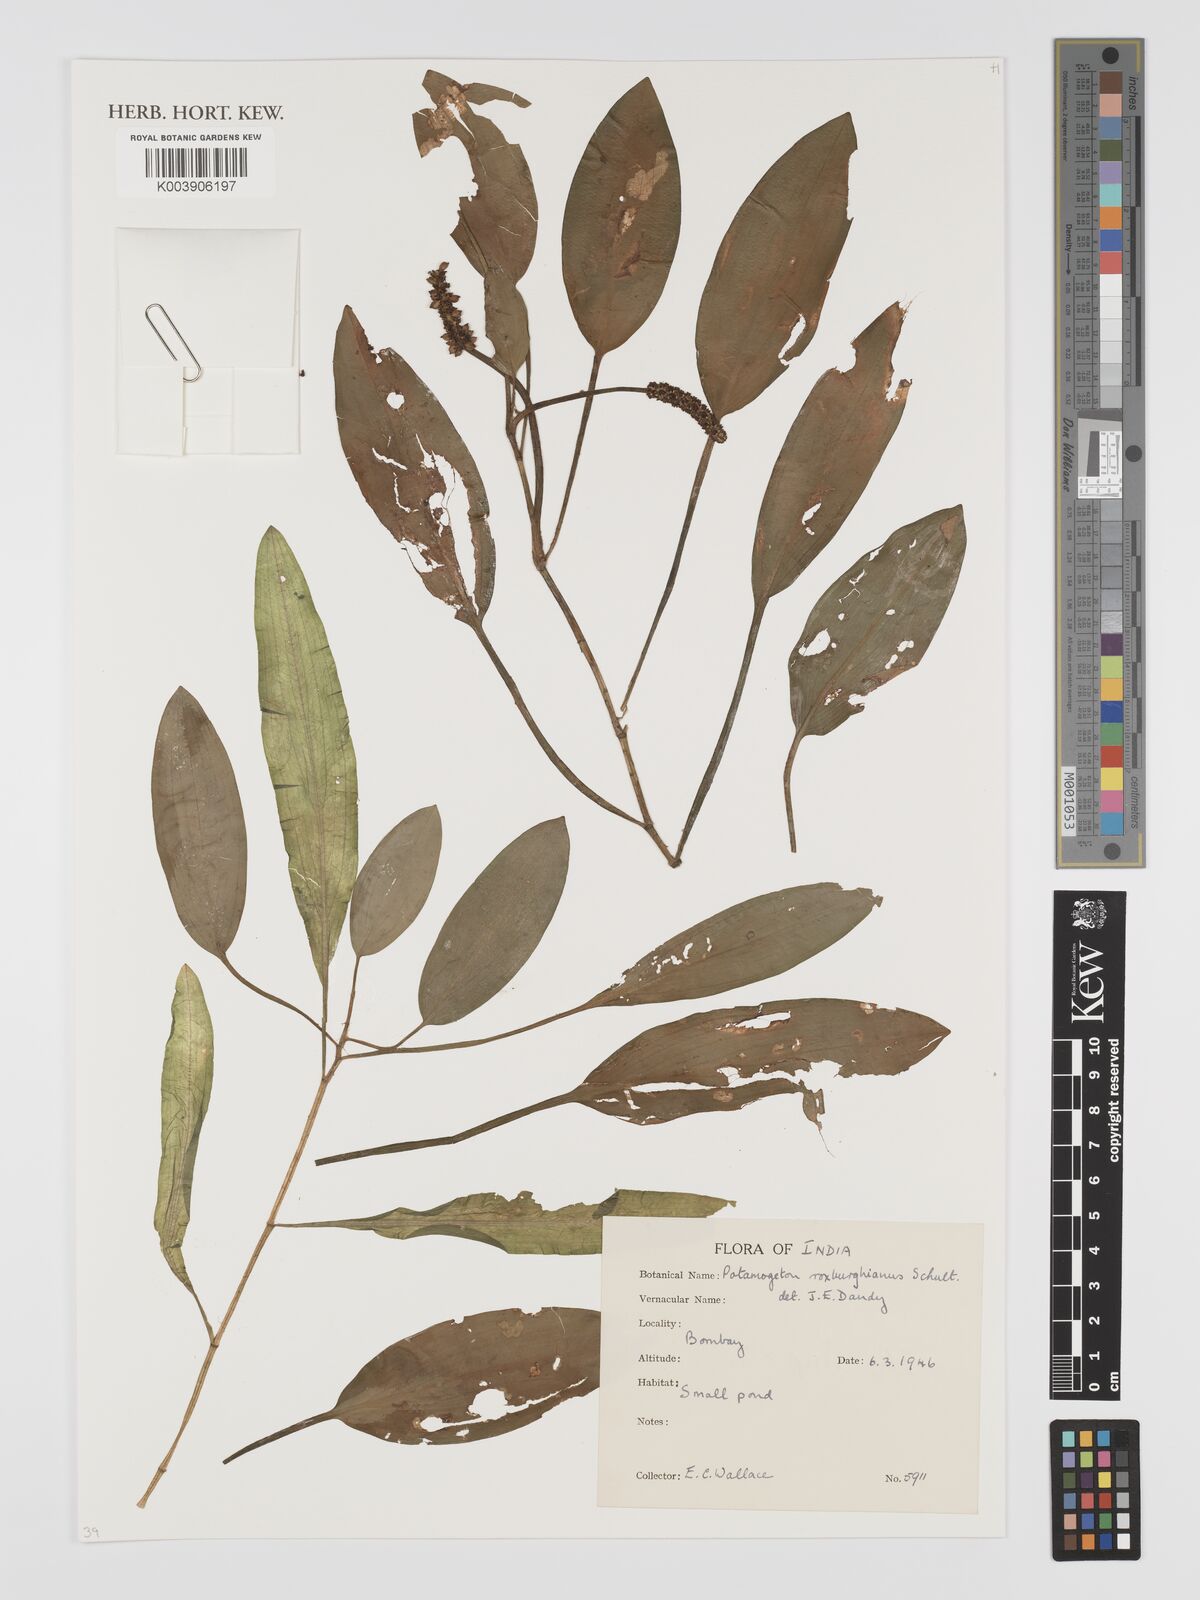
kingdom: Plantae
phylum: Tracheophyta
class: Liliopsida
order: Alismatales
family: Potamogetonaceae
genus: Potamogeton
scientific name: Potamogeton nodosus
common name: Loddon pondweed
